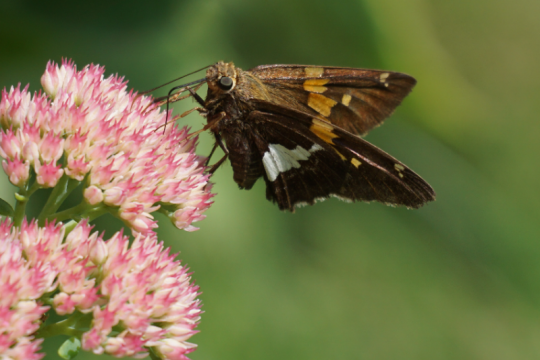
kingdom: Animalia
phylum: Arthropoda
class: Insecta
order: Lepidoptera
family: Hesperiidae
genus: Epargyreus
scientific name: Epargyreus clarus
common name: Silver-spotted Skipper
